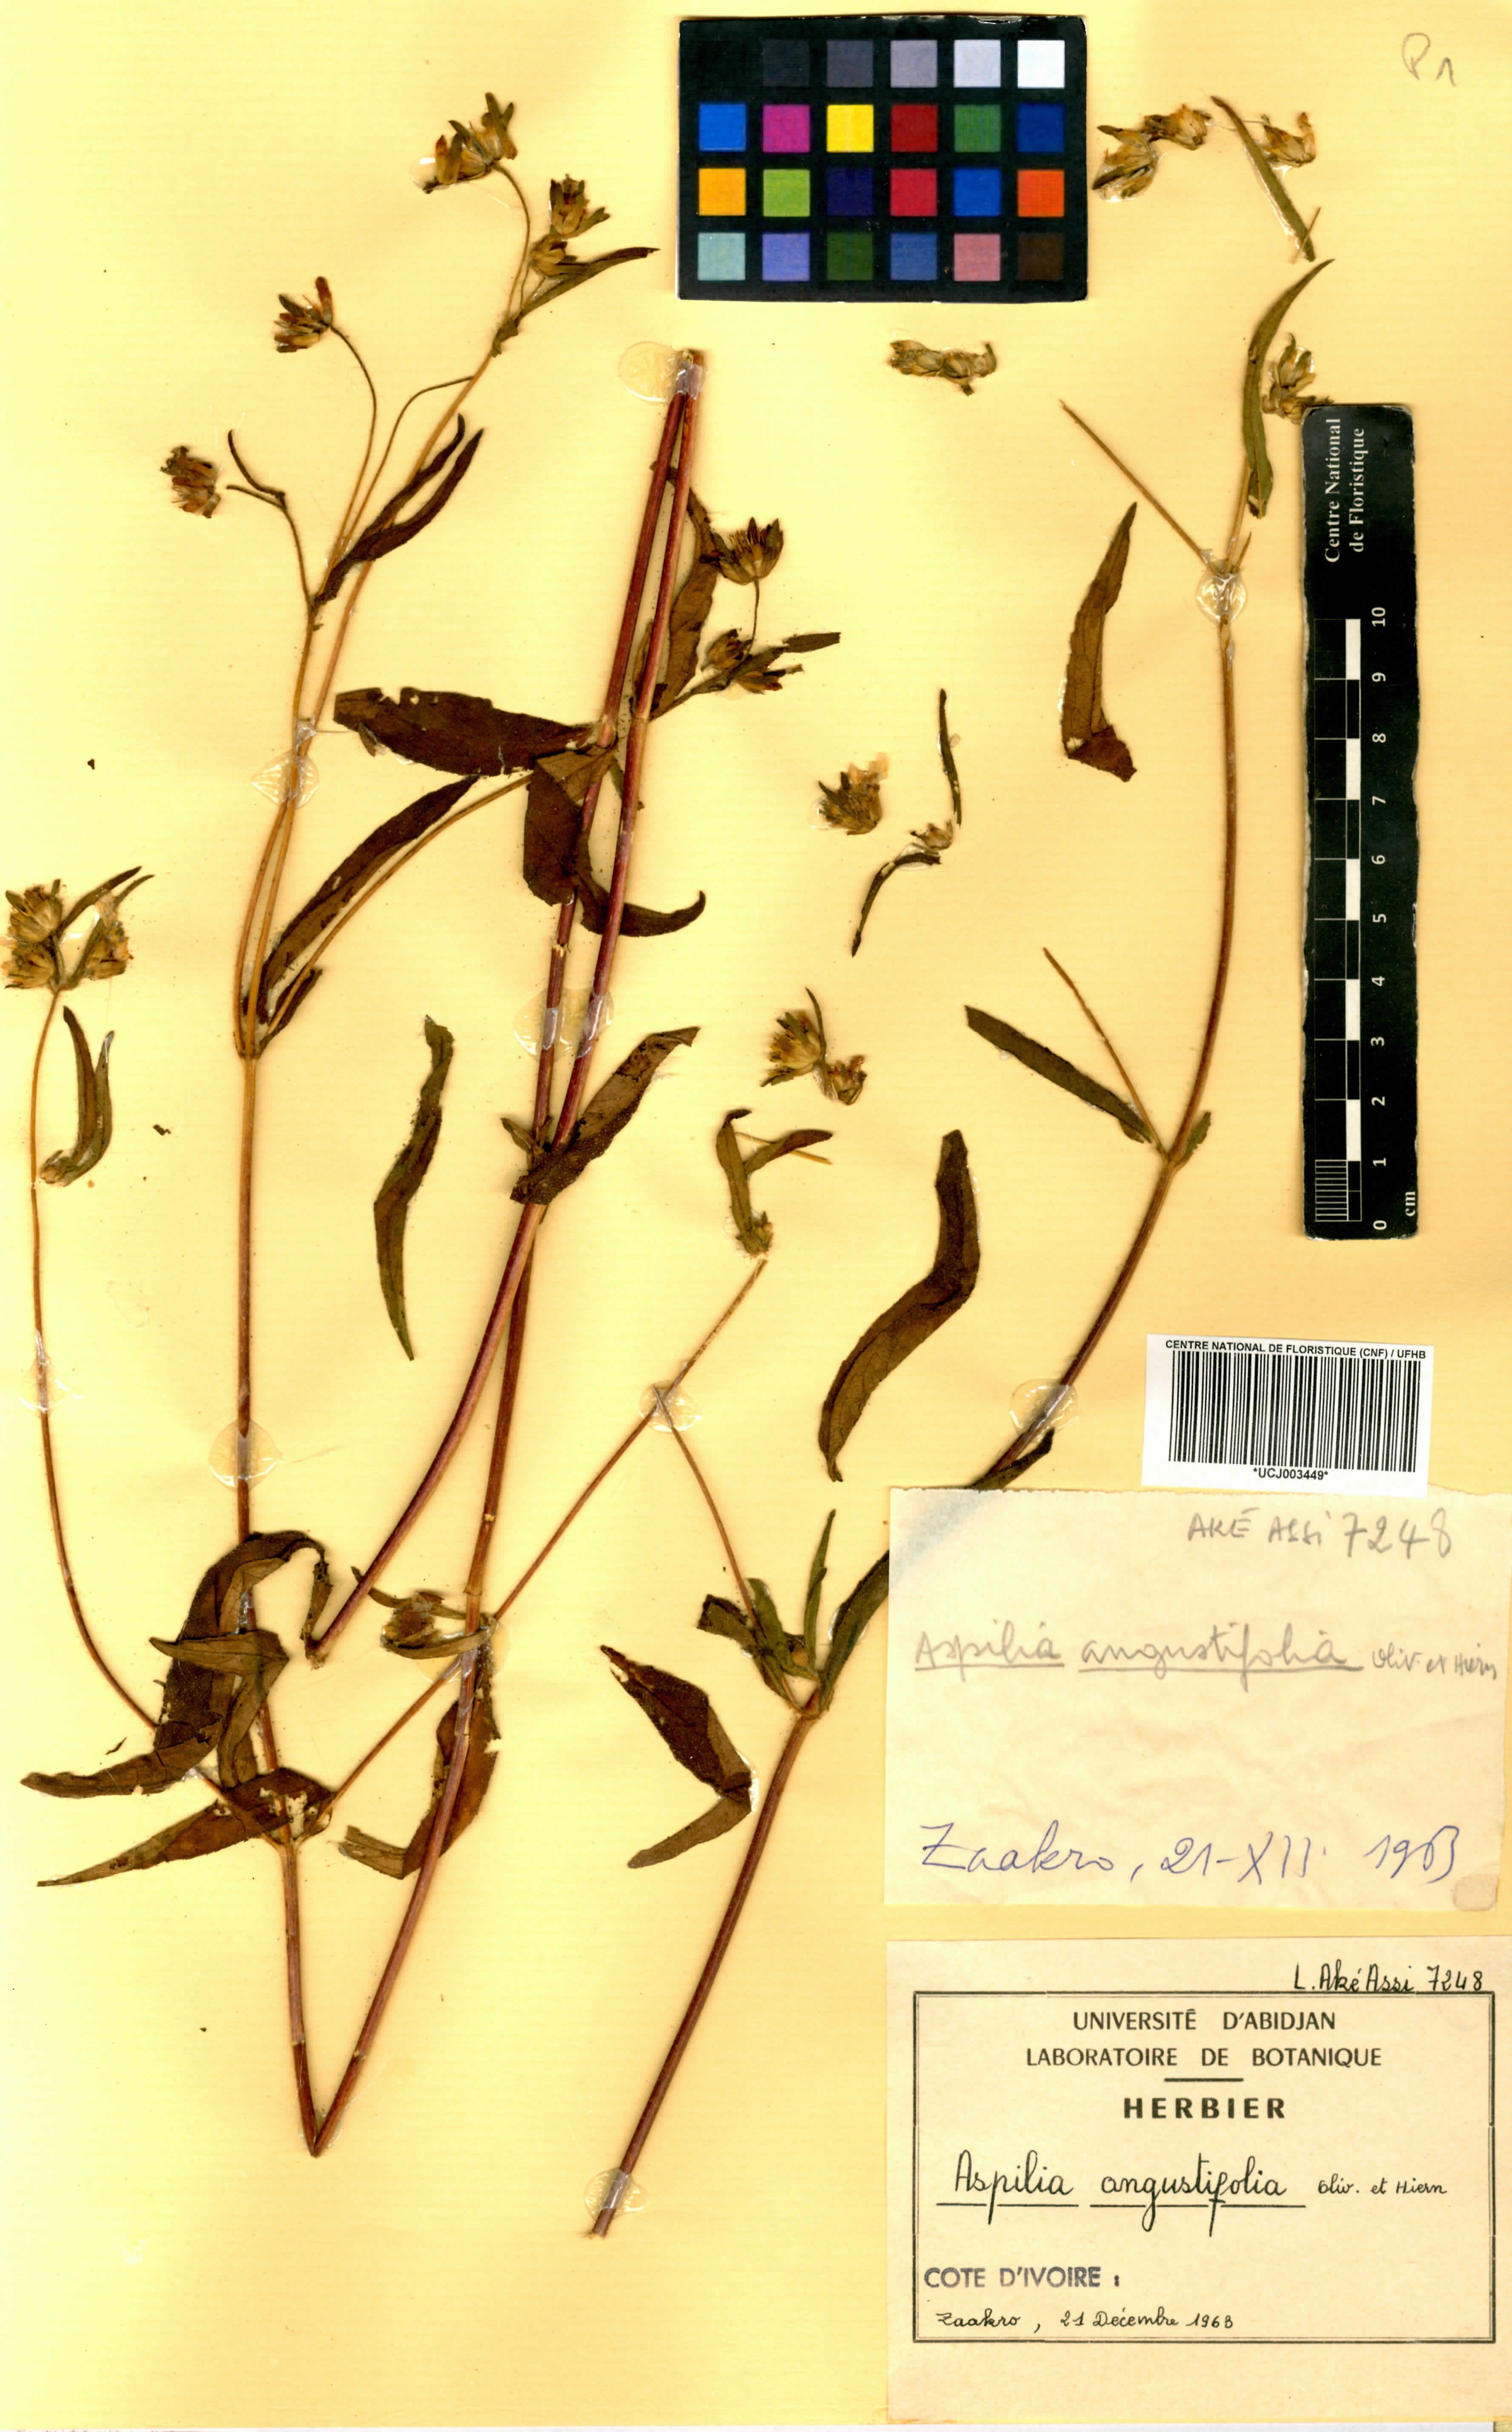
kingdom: Plantae
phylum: Tracheophyta
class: Magnoliopsida
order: Asterales
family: Asteraceae
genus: Aspilia
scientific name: Aspilia angustifolia
